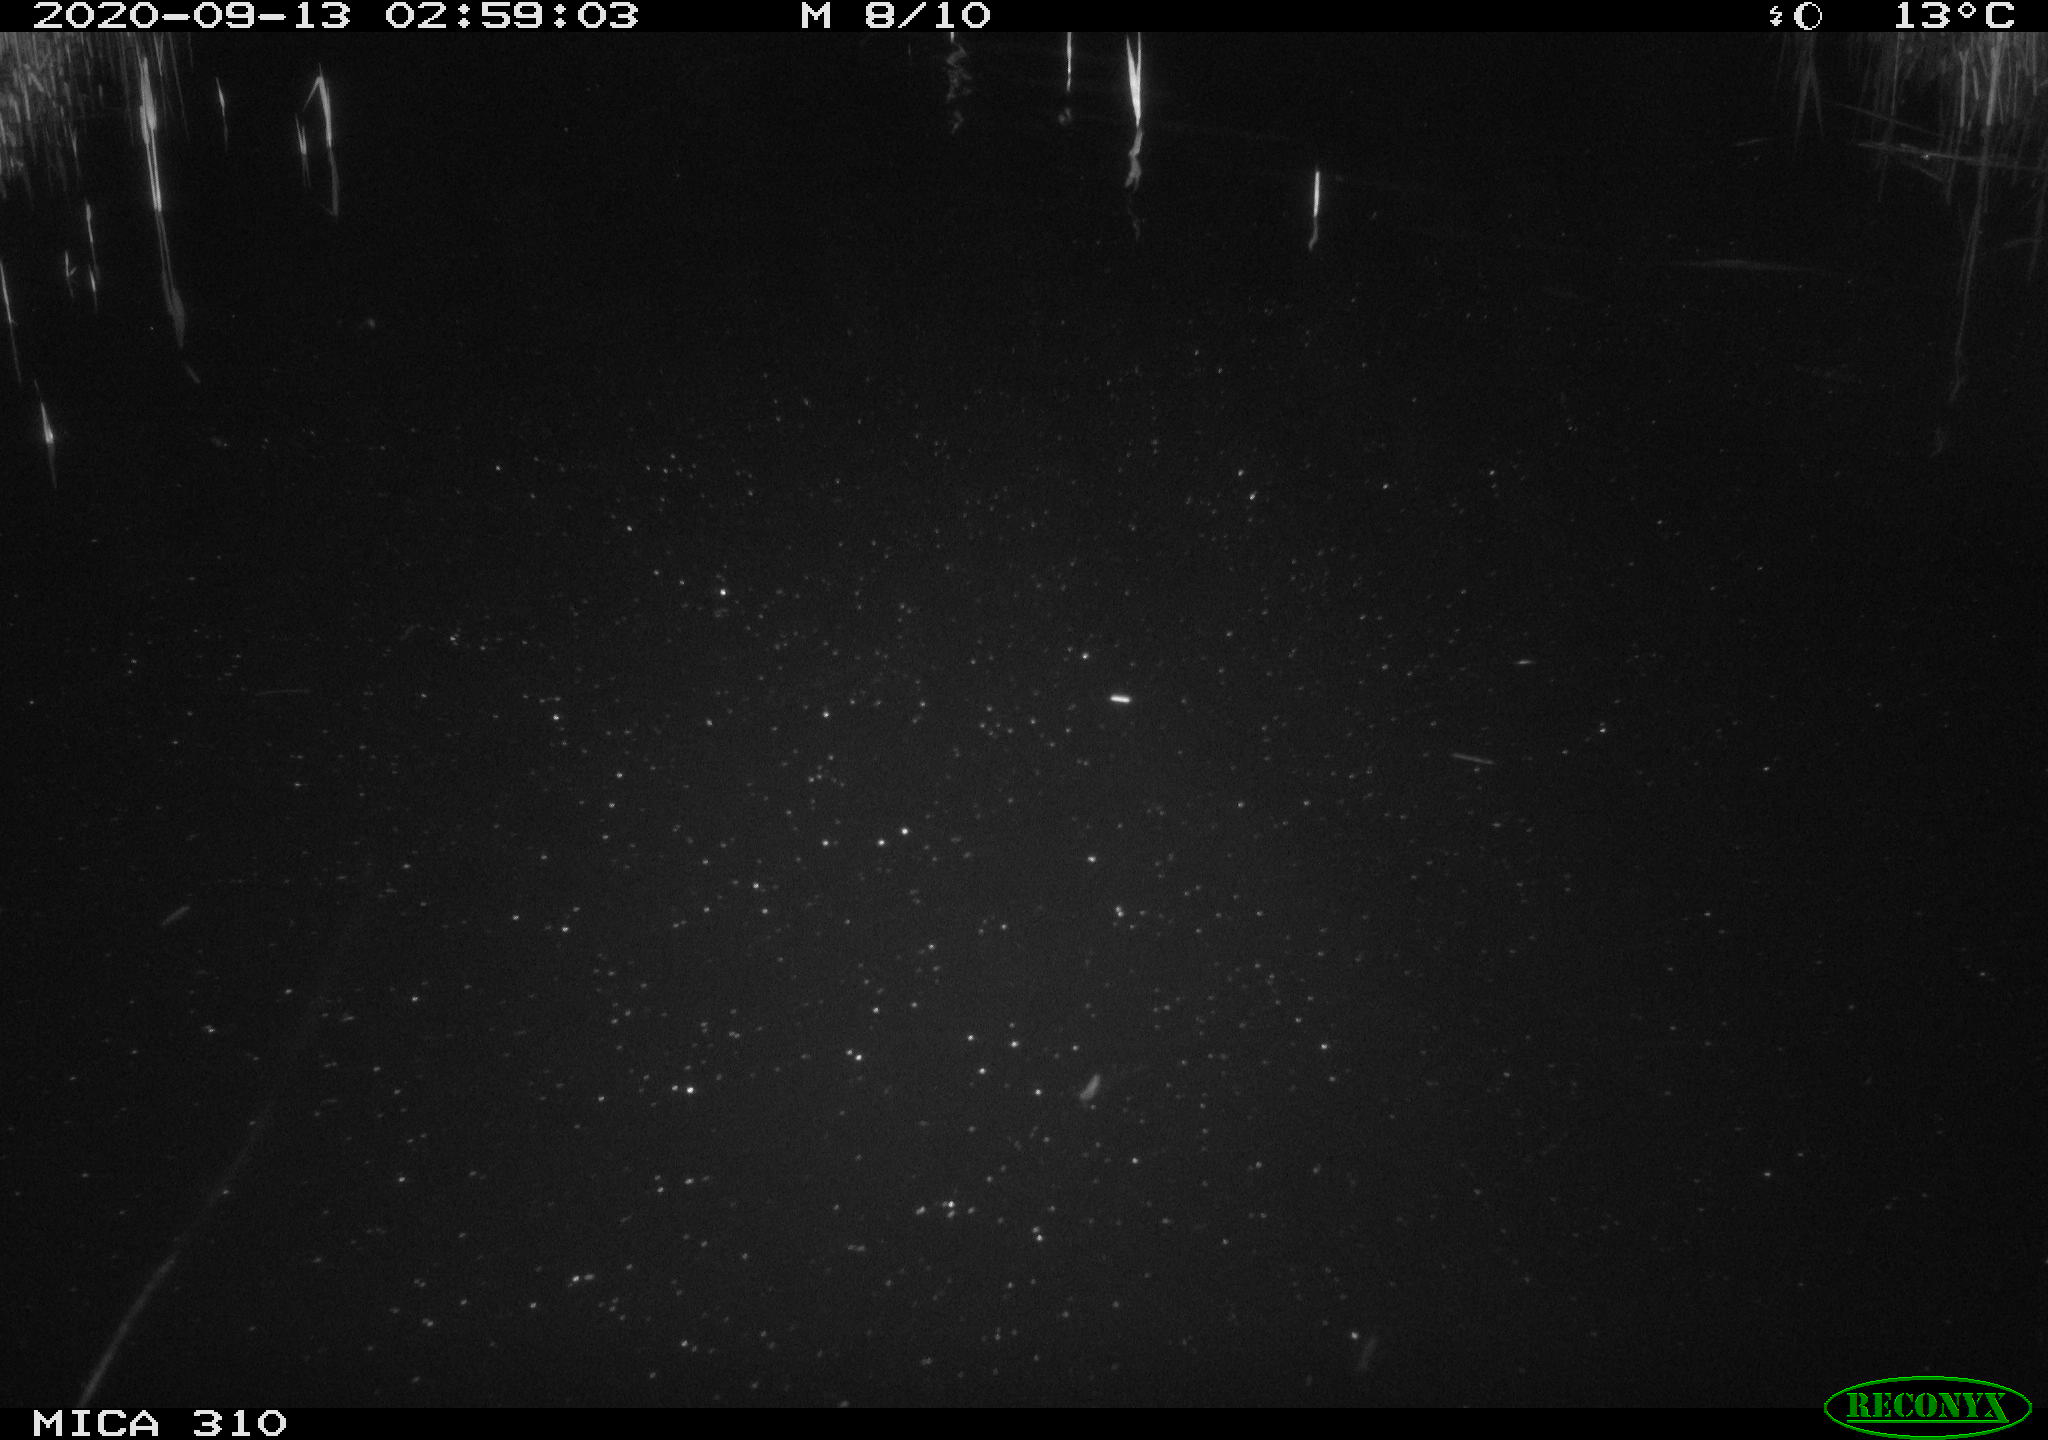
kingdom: Animalia
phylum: Chordata
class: Mammalia
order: Rodentia
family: Cricetidae
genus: Ondatra
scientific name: Ondatra zibethicus
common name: Muskrat
